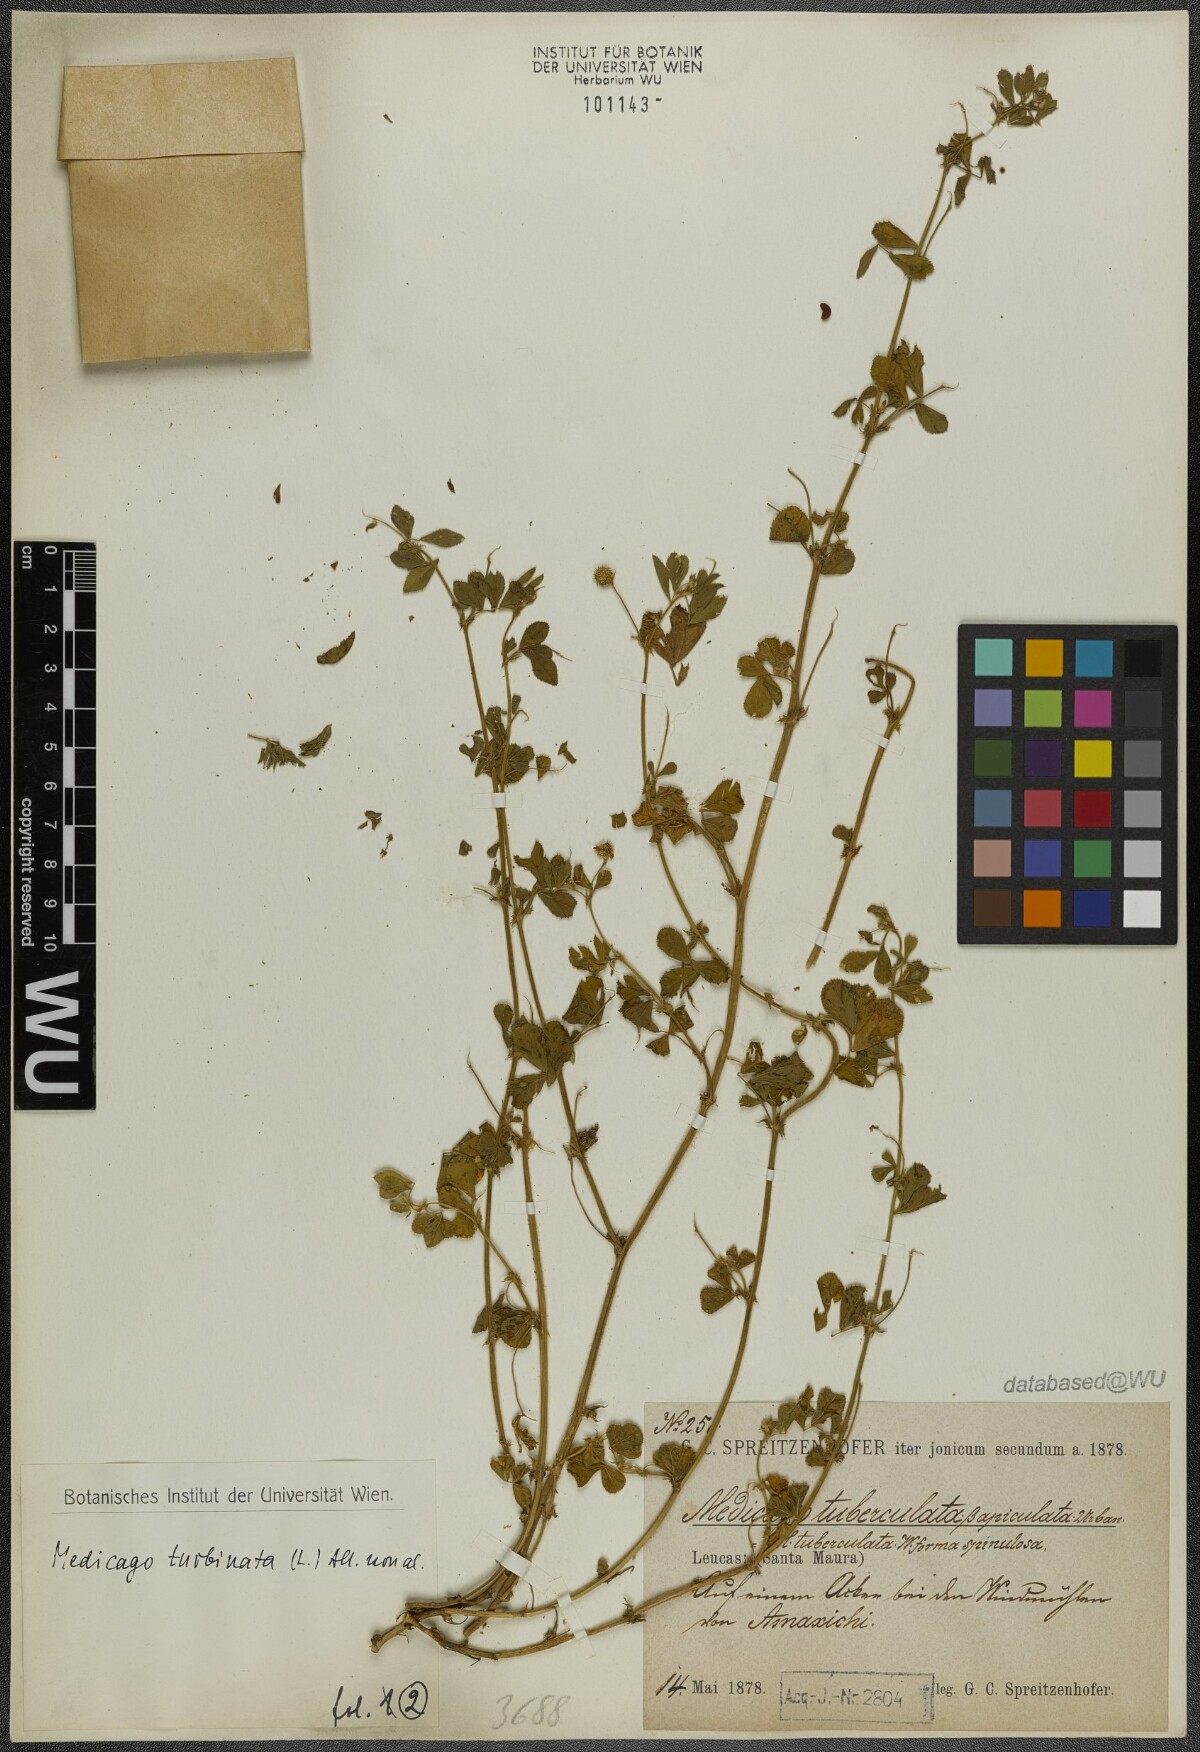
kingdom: Plantae
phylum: Tracheophyta
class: Magnoliopsida
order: Fabales
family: Fabaceae
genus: Medicago
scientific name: Medicago turbinata
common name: Southern medick
